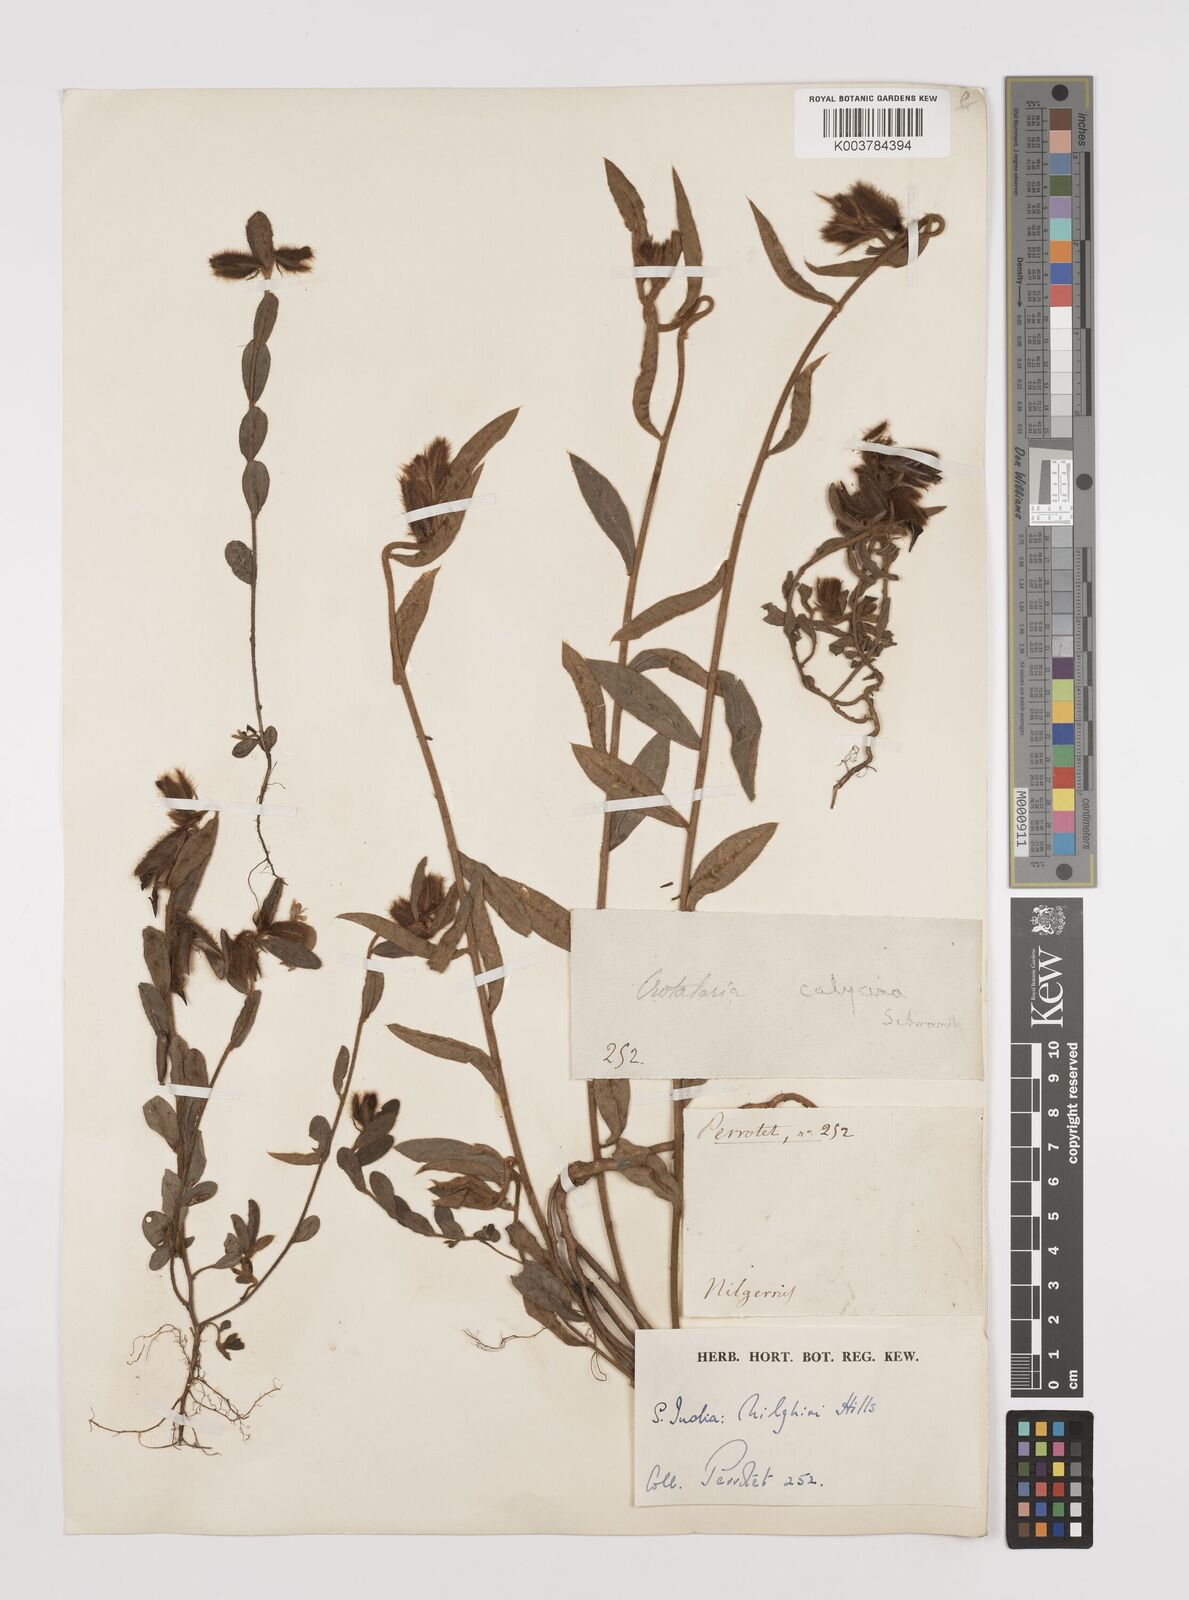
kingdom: Plantae
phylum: Tracheophyta
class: Magnoliopsida
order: Fabales
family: Fabaceae
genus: Crotalaria
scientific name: Crotalaria calycina
